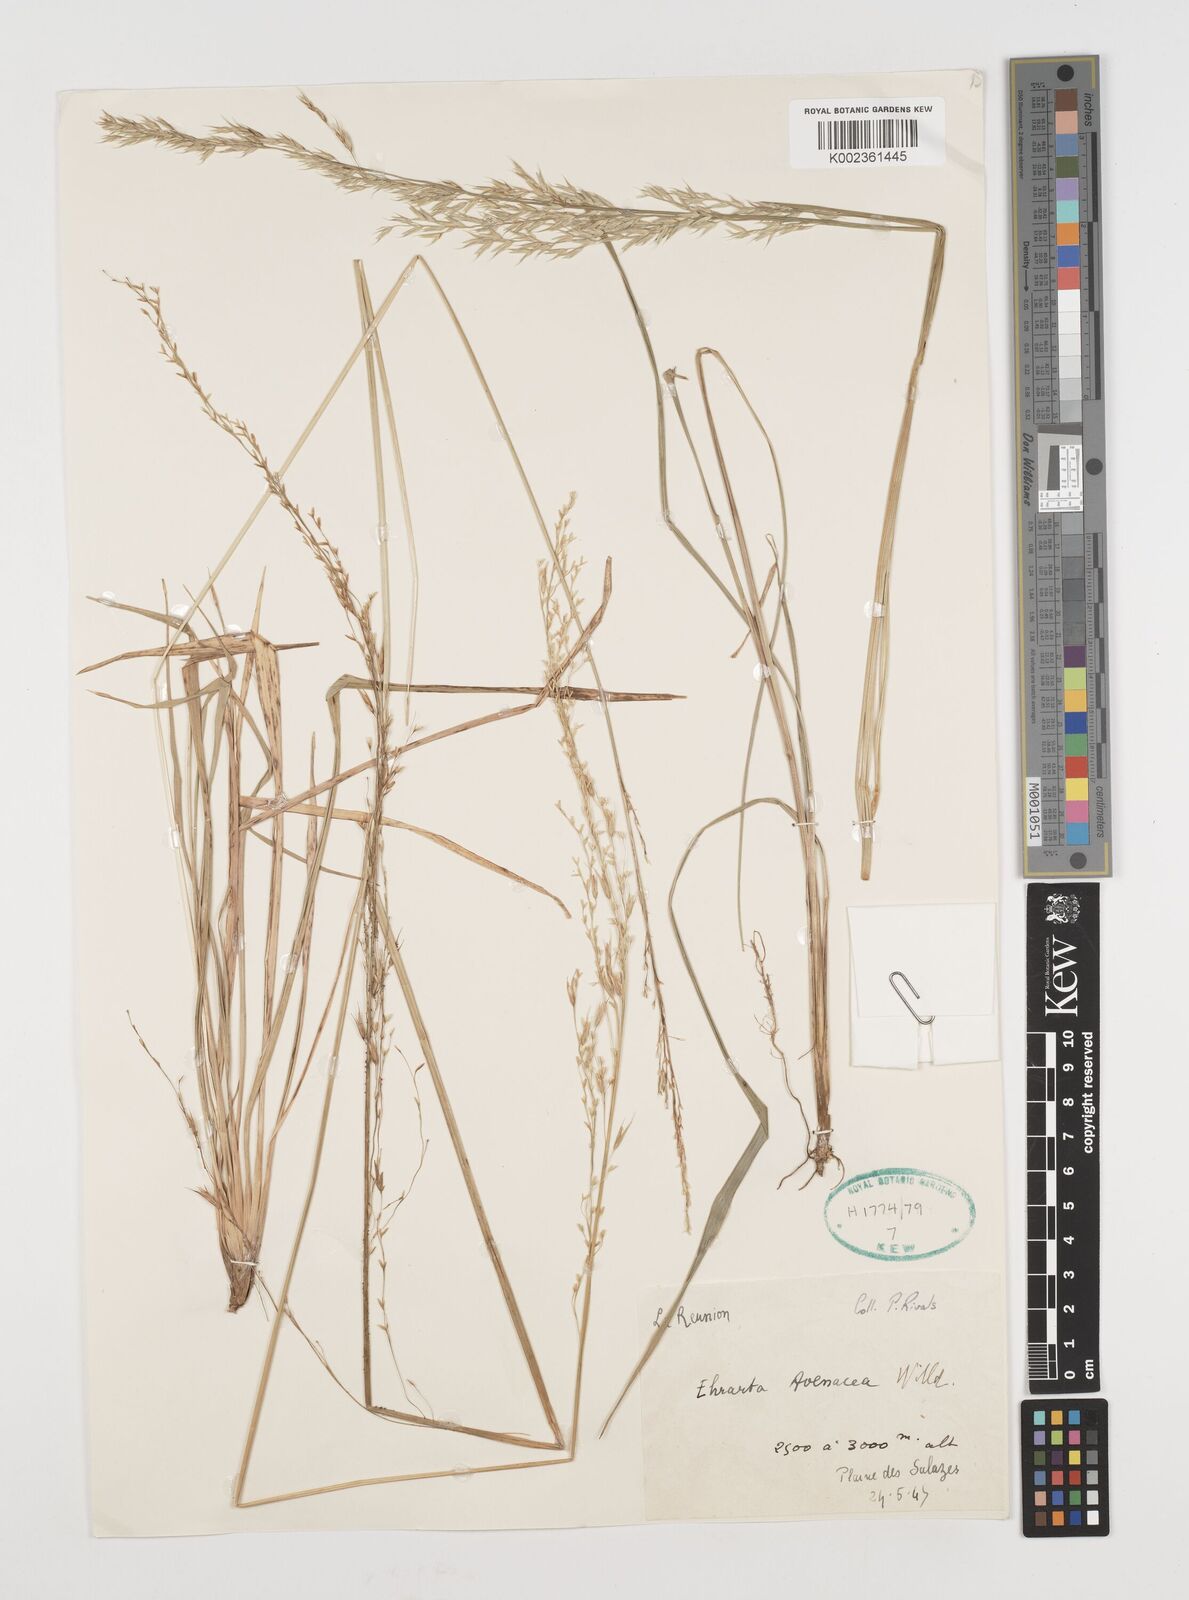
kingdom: Plantae
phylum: Tracheophyta
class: Liliopsida
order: Poales
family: Poaceae
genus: Ehrharta
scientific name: Ehrharta
